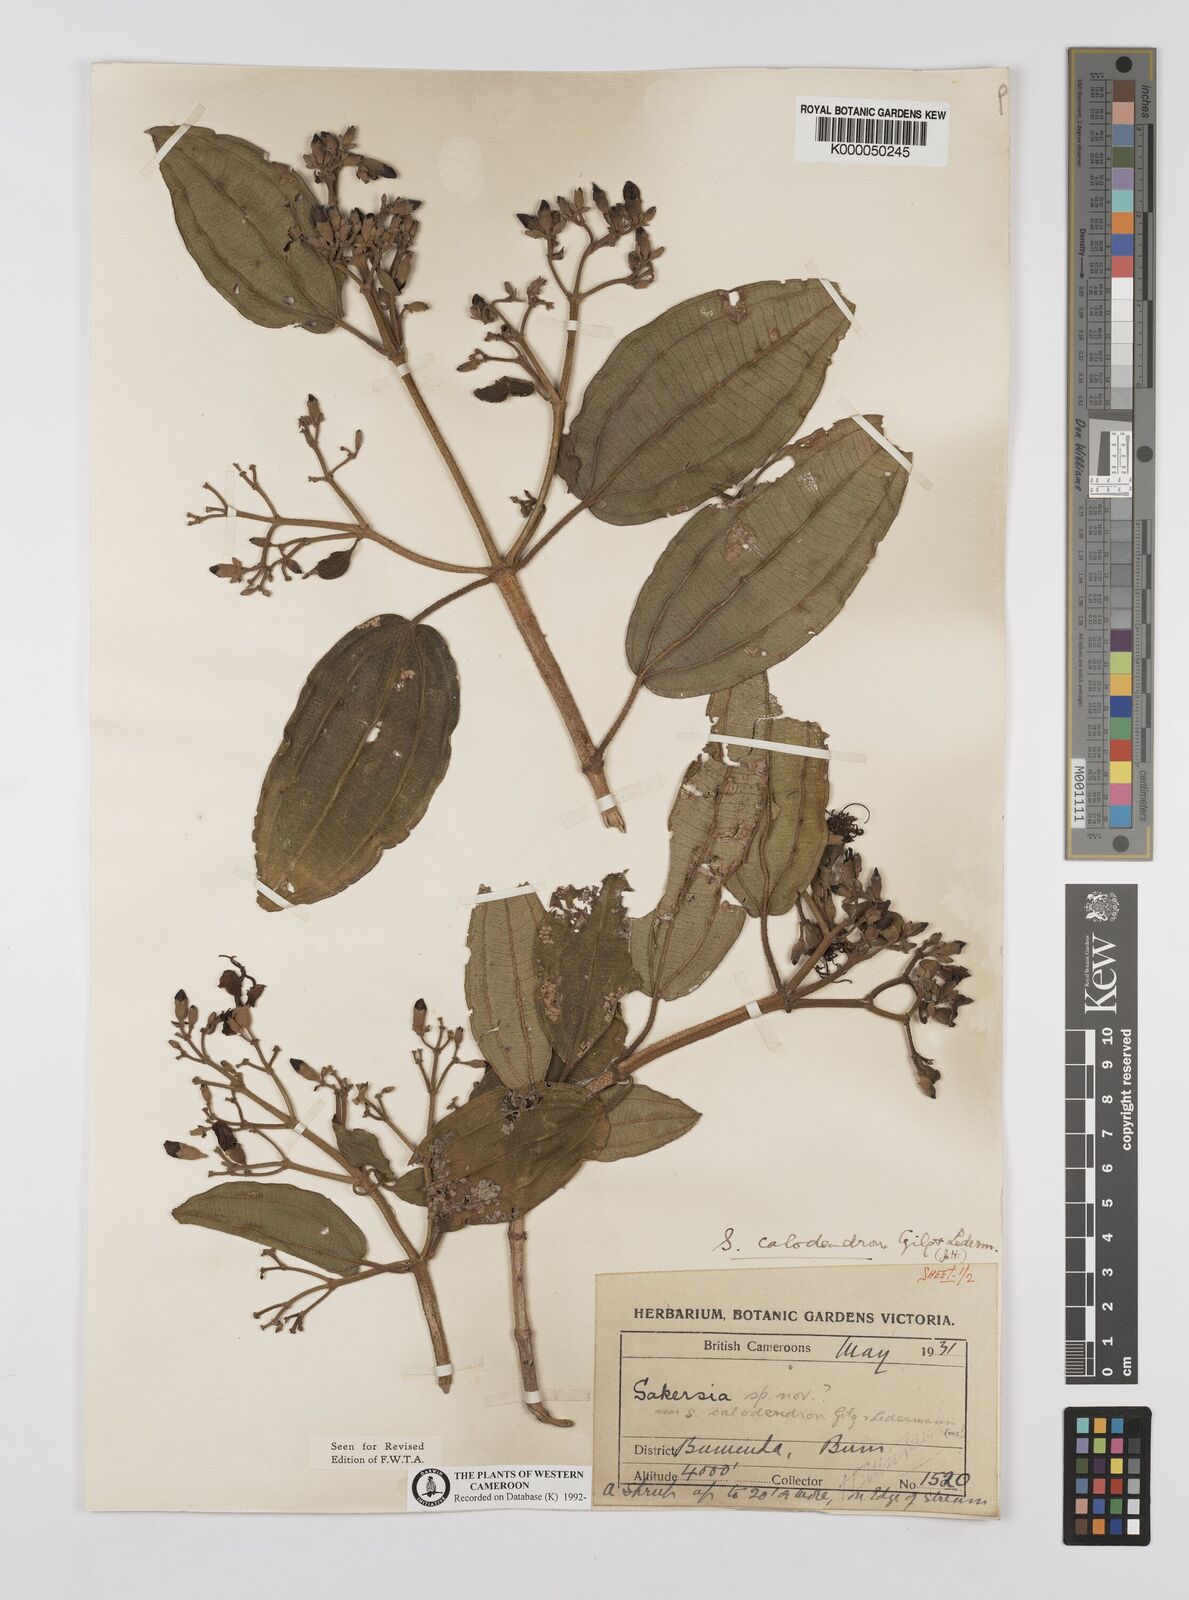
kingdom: Plantae
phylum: Tracheophyta
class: Magnoliopsida
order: Myrtales
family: Melastomataceae
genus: Dichaetanthera
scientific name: Dichaetanthera
